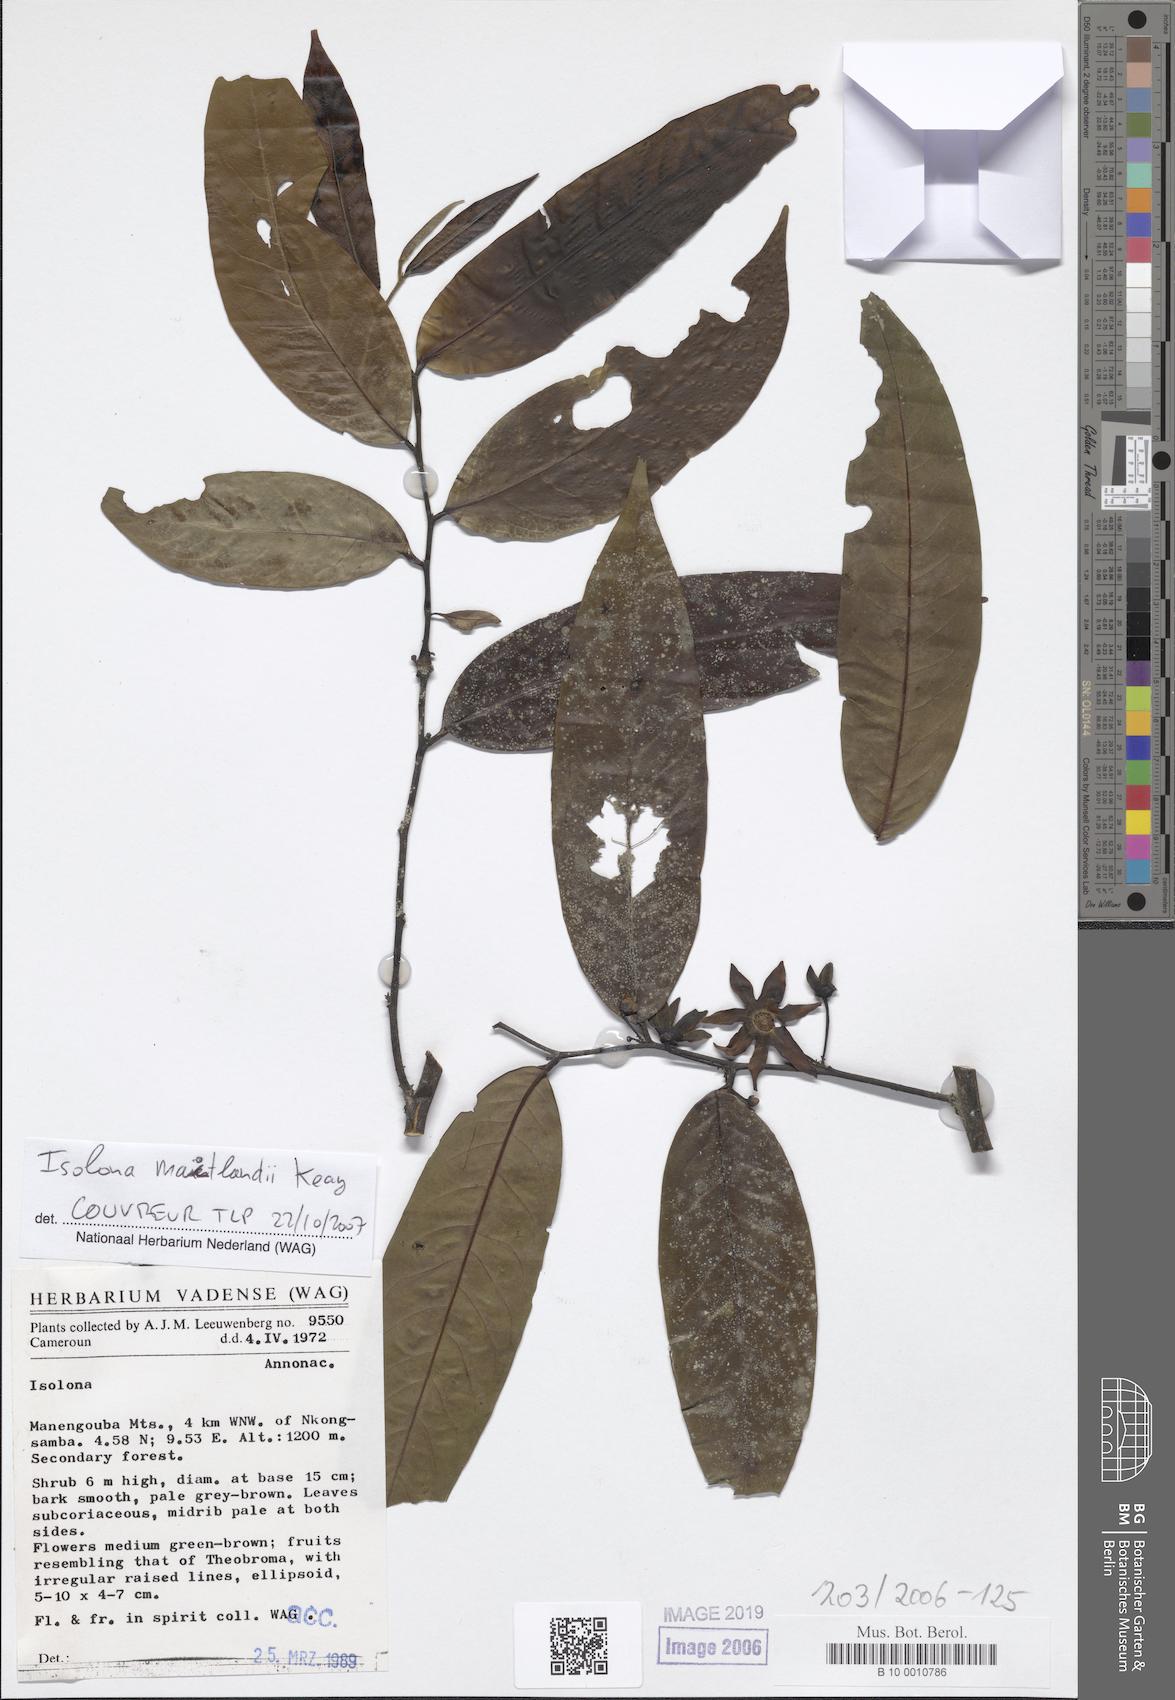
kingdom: Plantae
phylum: Tracheophyta
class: Magnoliopsida
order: Magnoliales
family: Annonaceae
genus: Isolona
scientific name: Isolona
